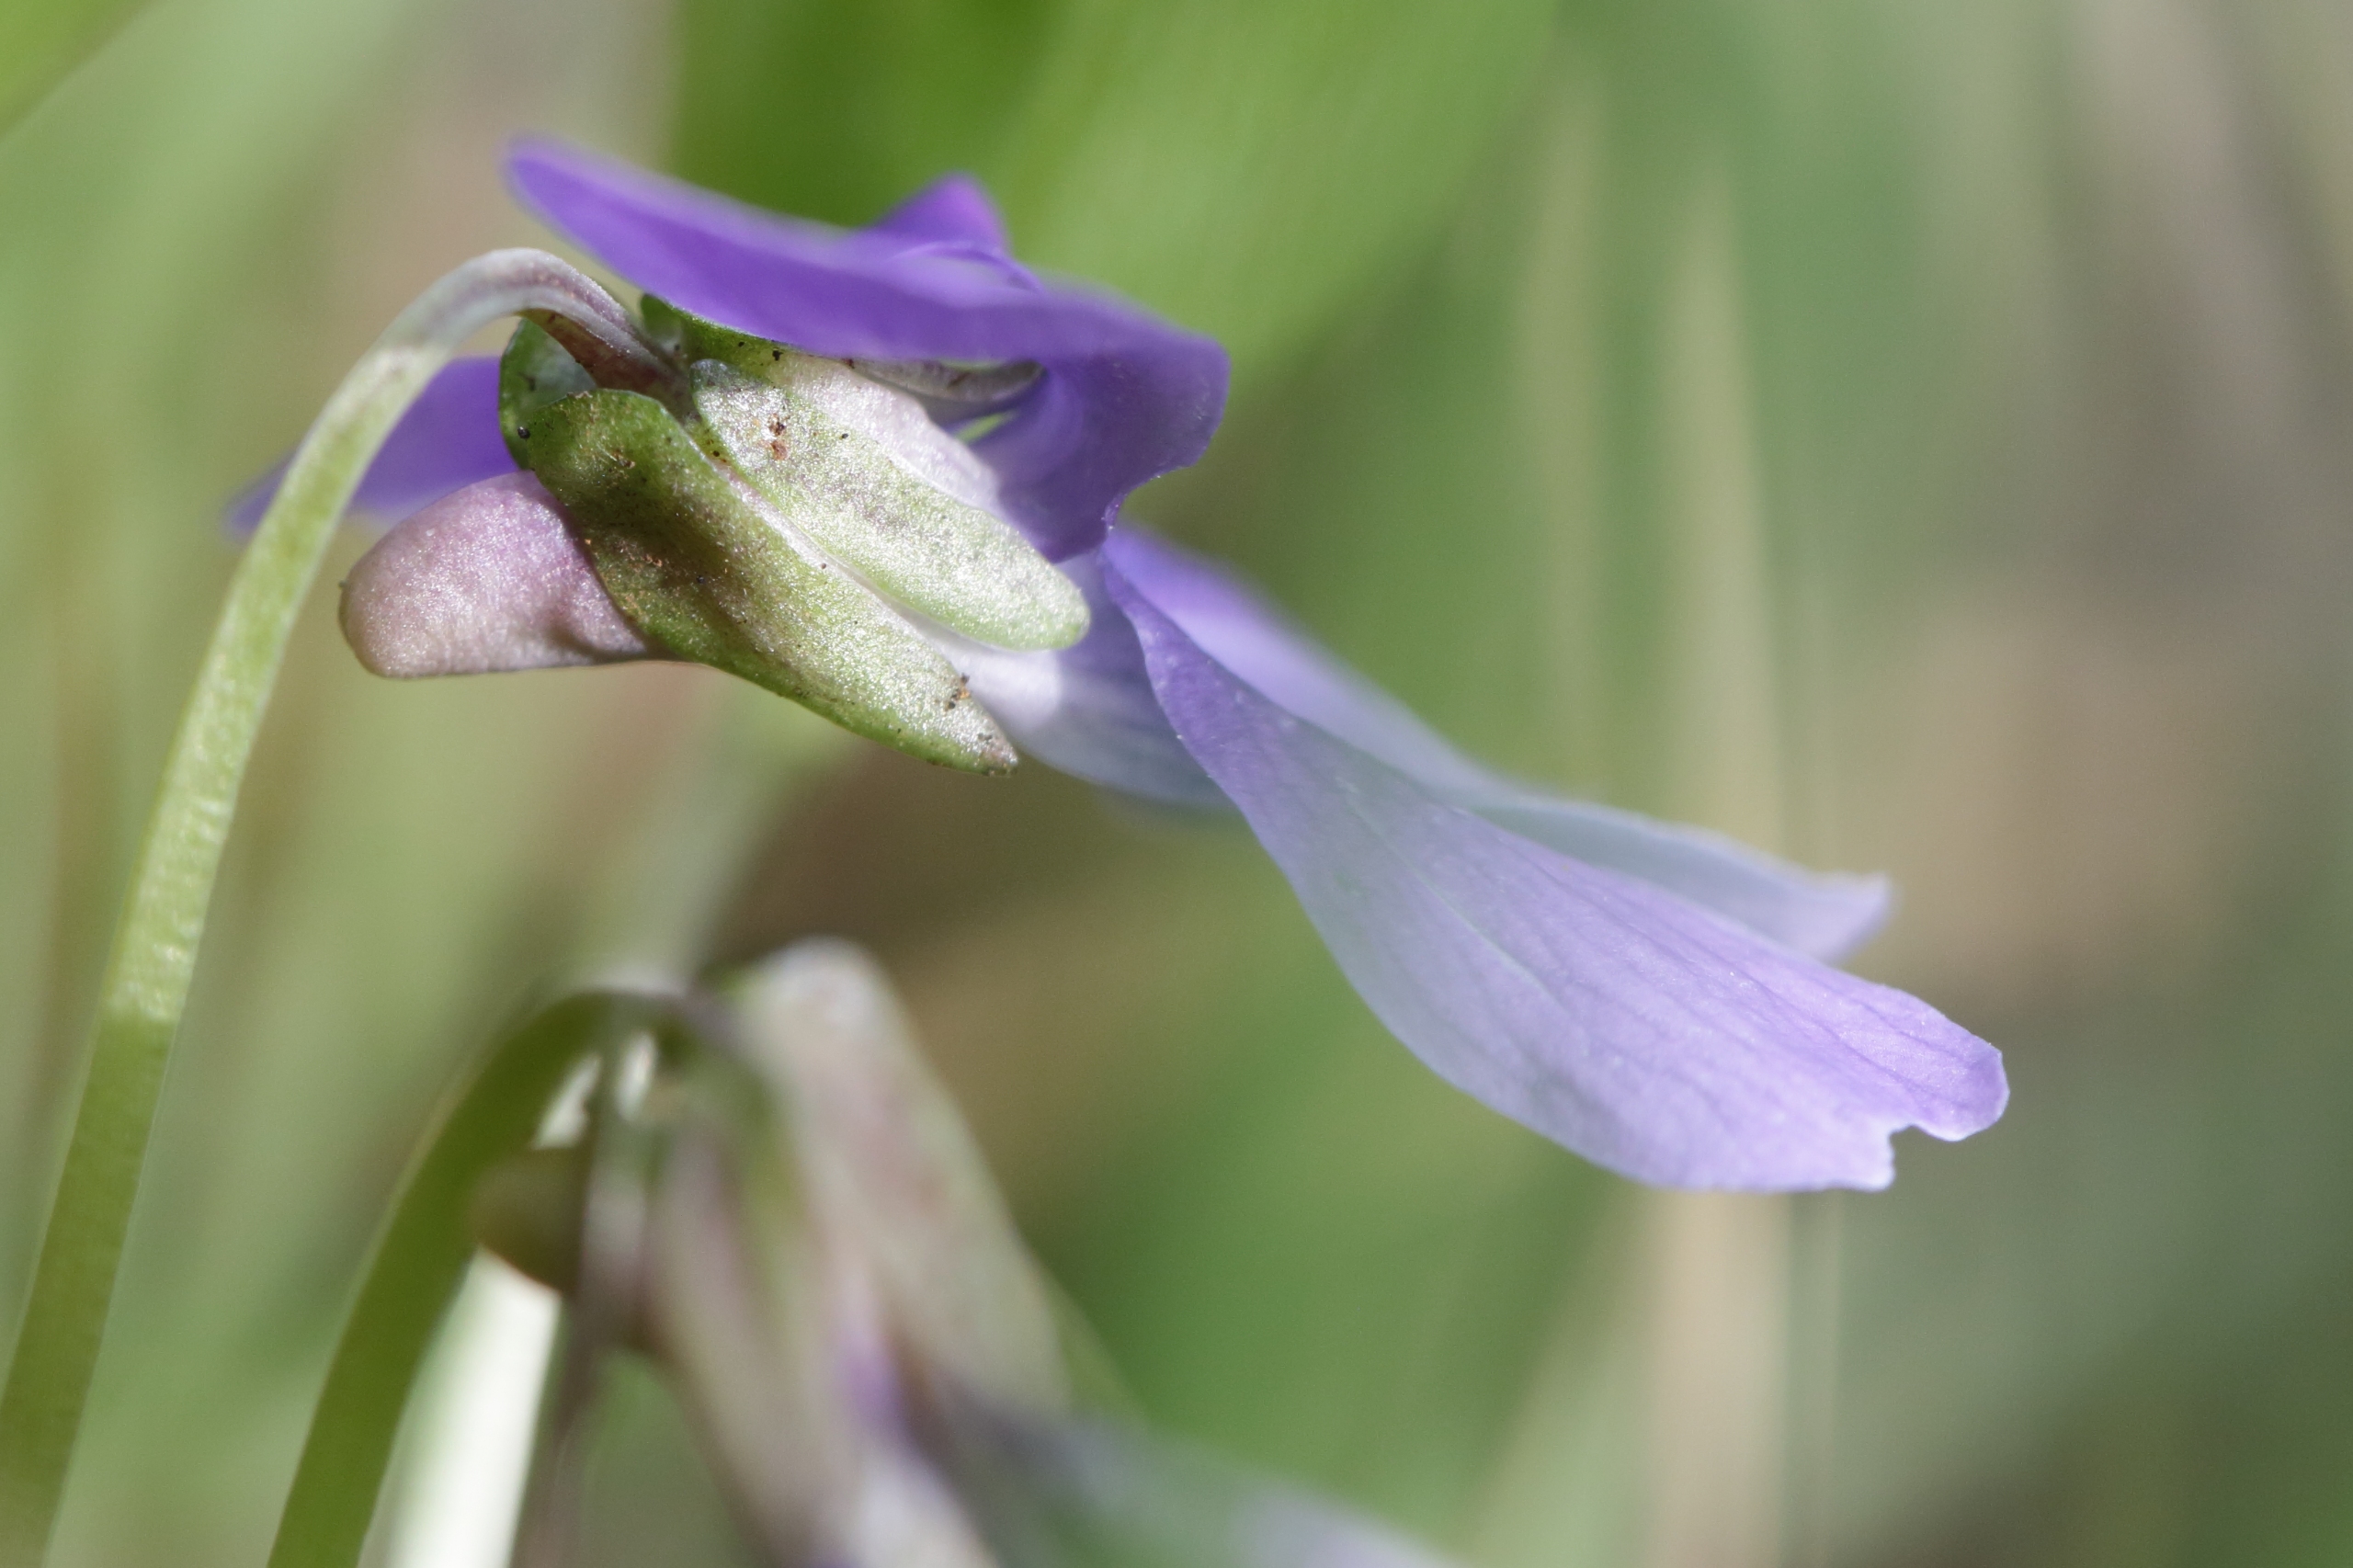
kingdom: Plantae
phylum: Tracheophyta
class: Magnoliopsida
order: Malpighiales
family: Violaceae
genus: Viola
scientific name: Viola uliginosa
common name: Sump-viol
